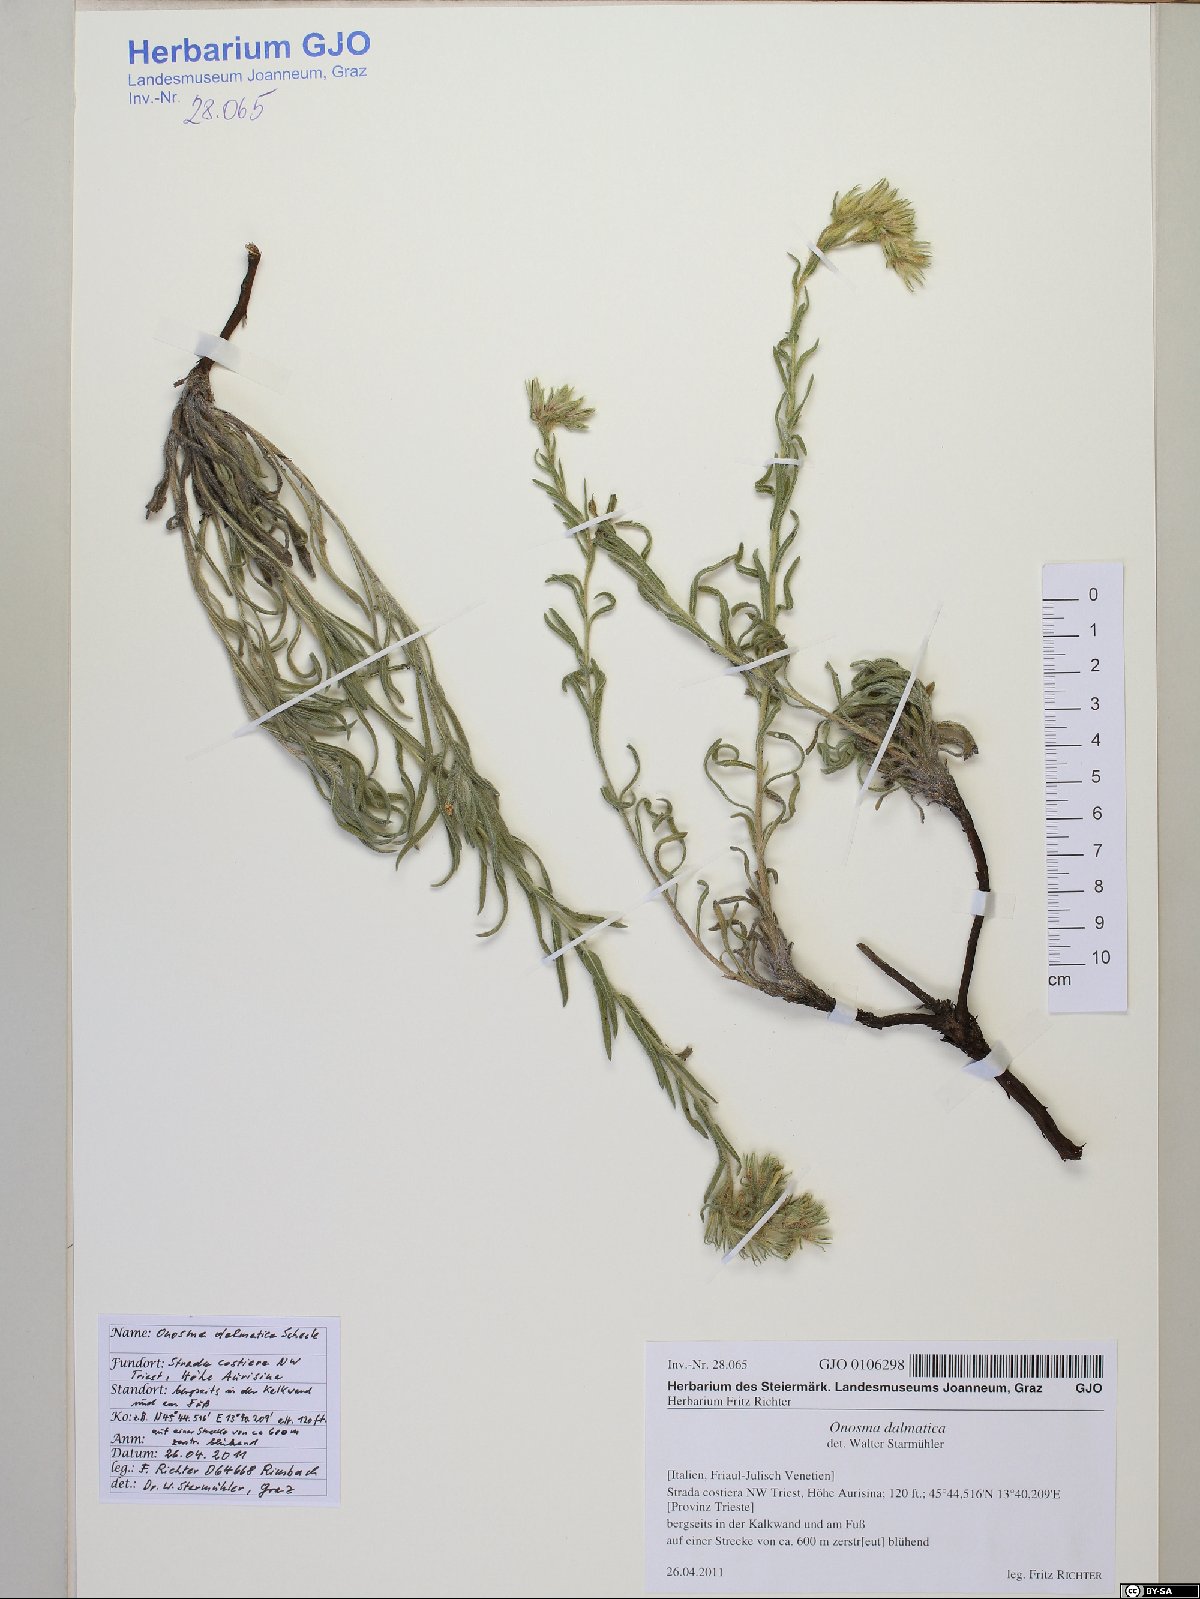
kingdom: Plantae
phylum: Tracheophyta
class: Magnoliopsida
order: Boraginales
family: Boraginaceae
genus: Onosma
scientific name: Onosma echioides
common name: Goldendrop
